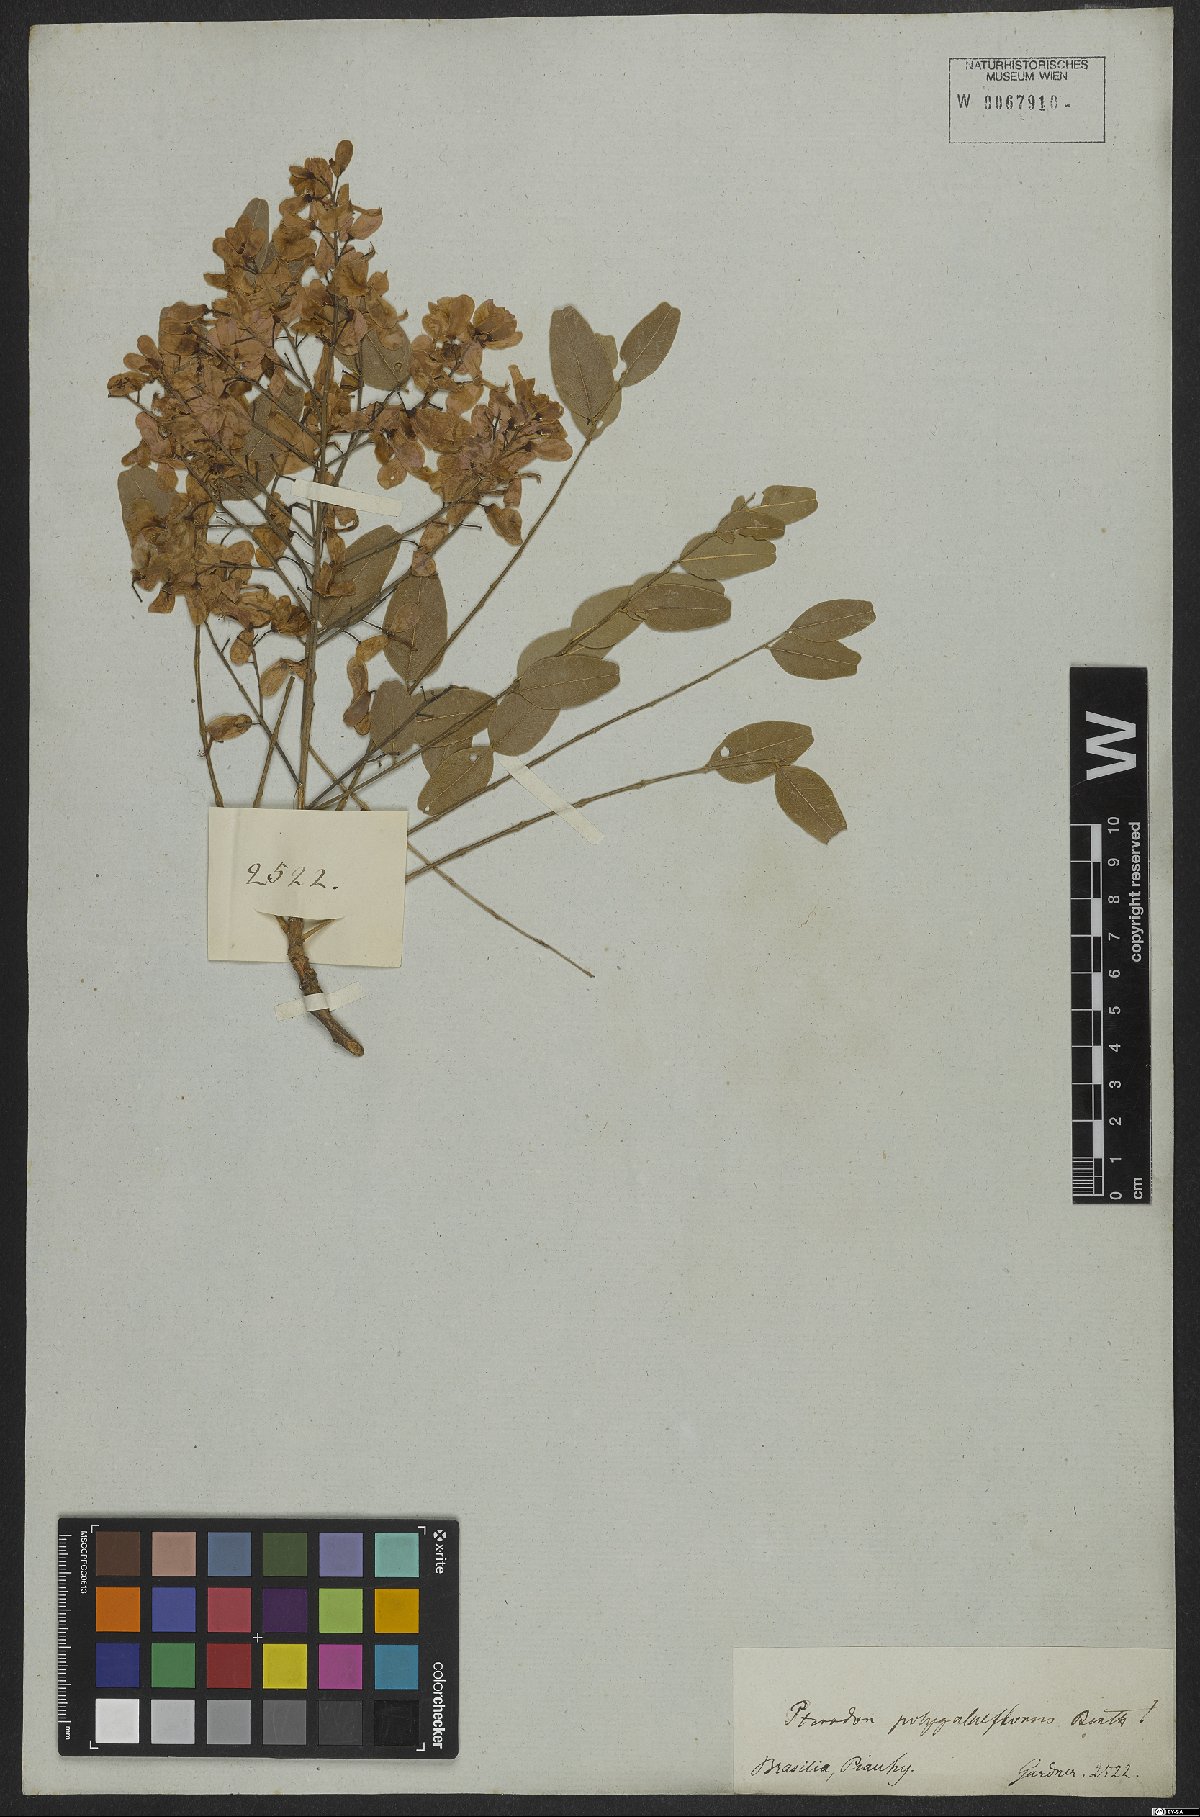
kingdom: Plantae
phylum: Tracheophyta
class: Magnoliopsida
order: Fabales
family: Fabaceae
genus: Pterodon
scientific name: Pterodon emarginatus
